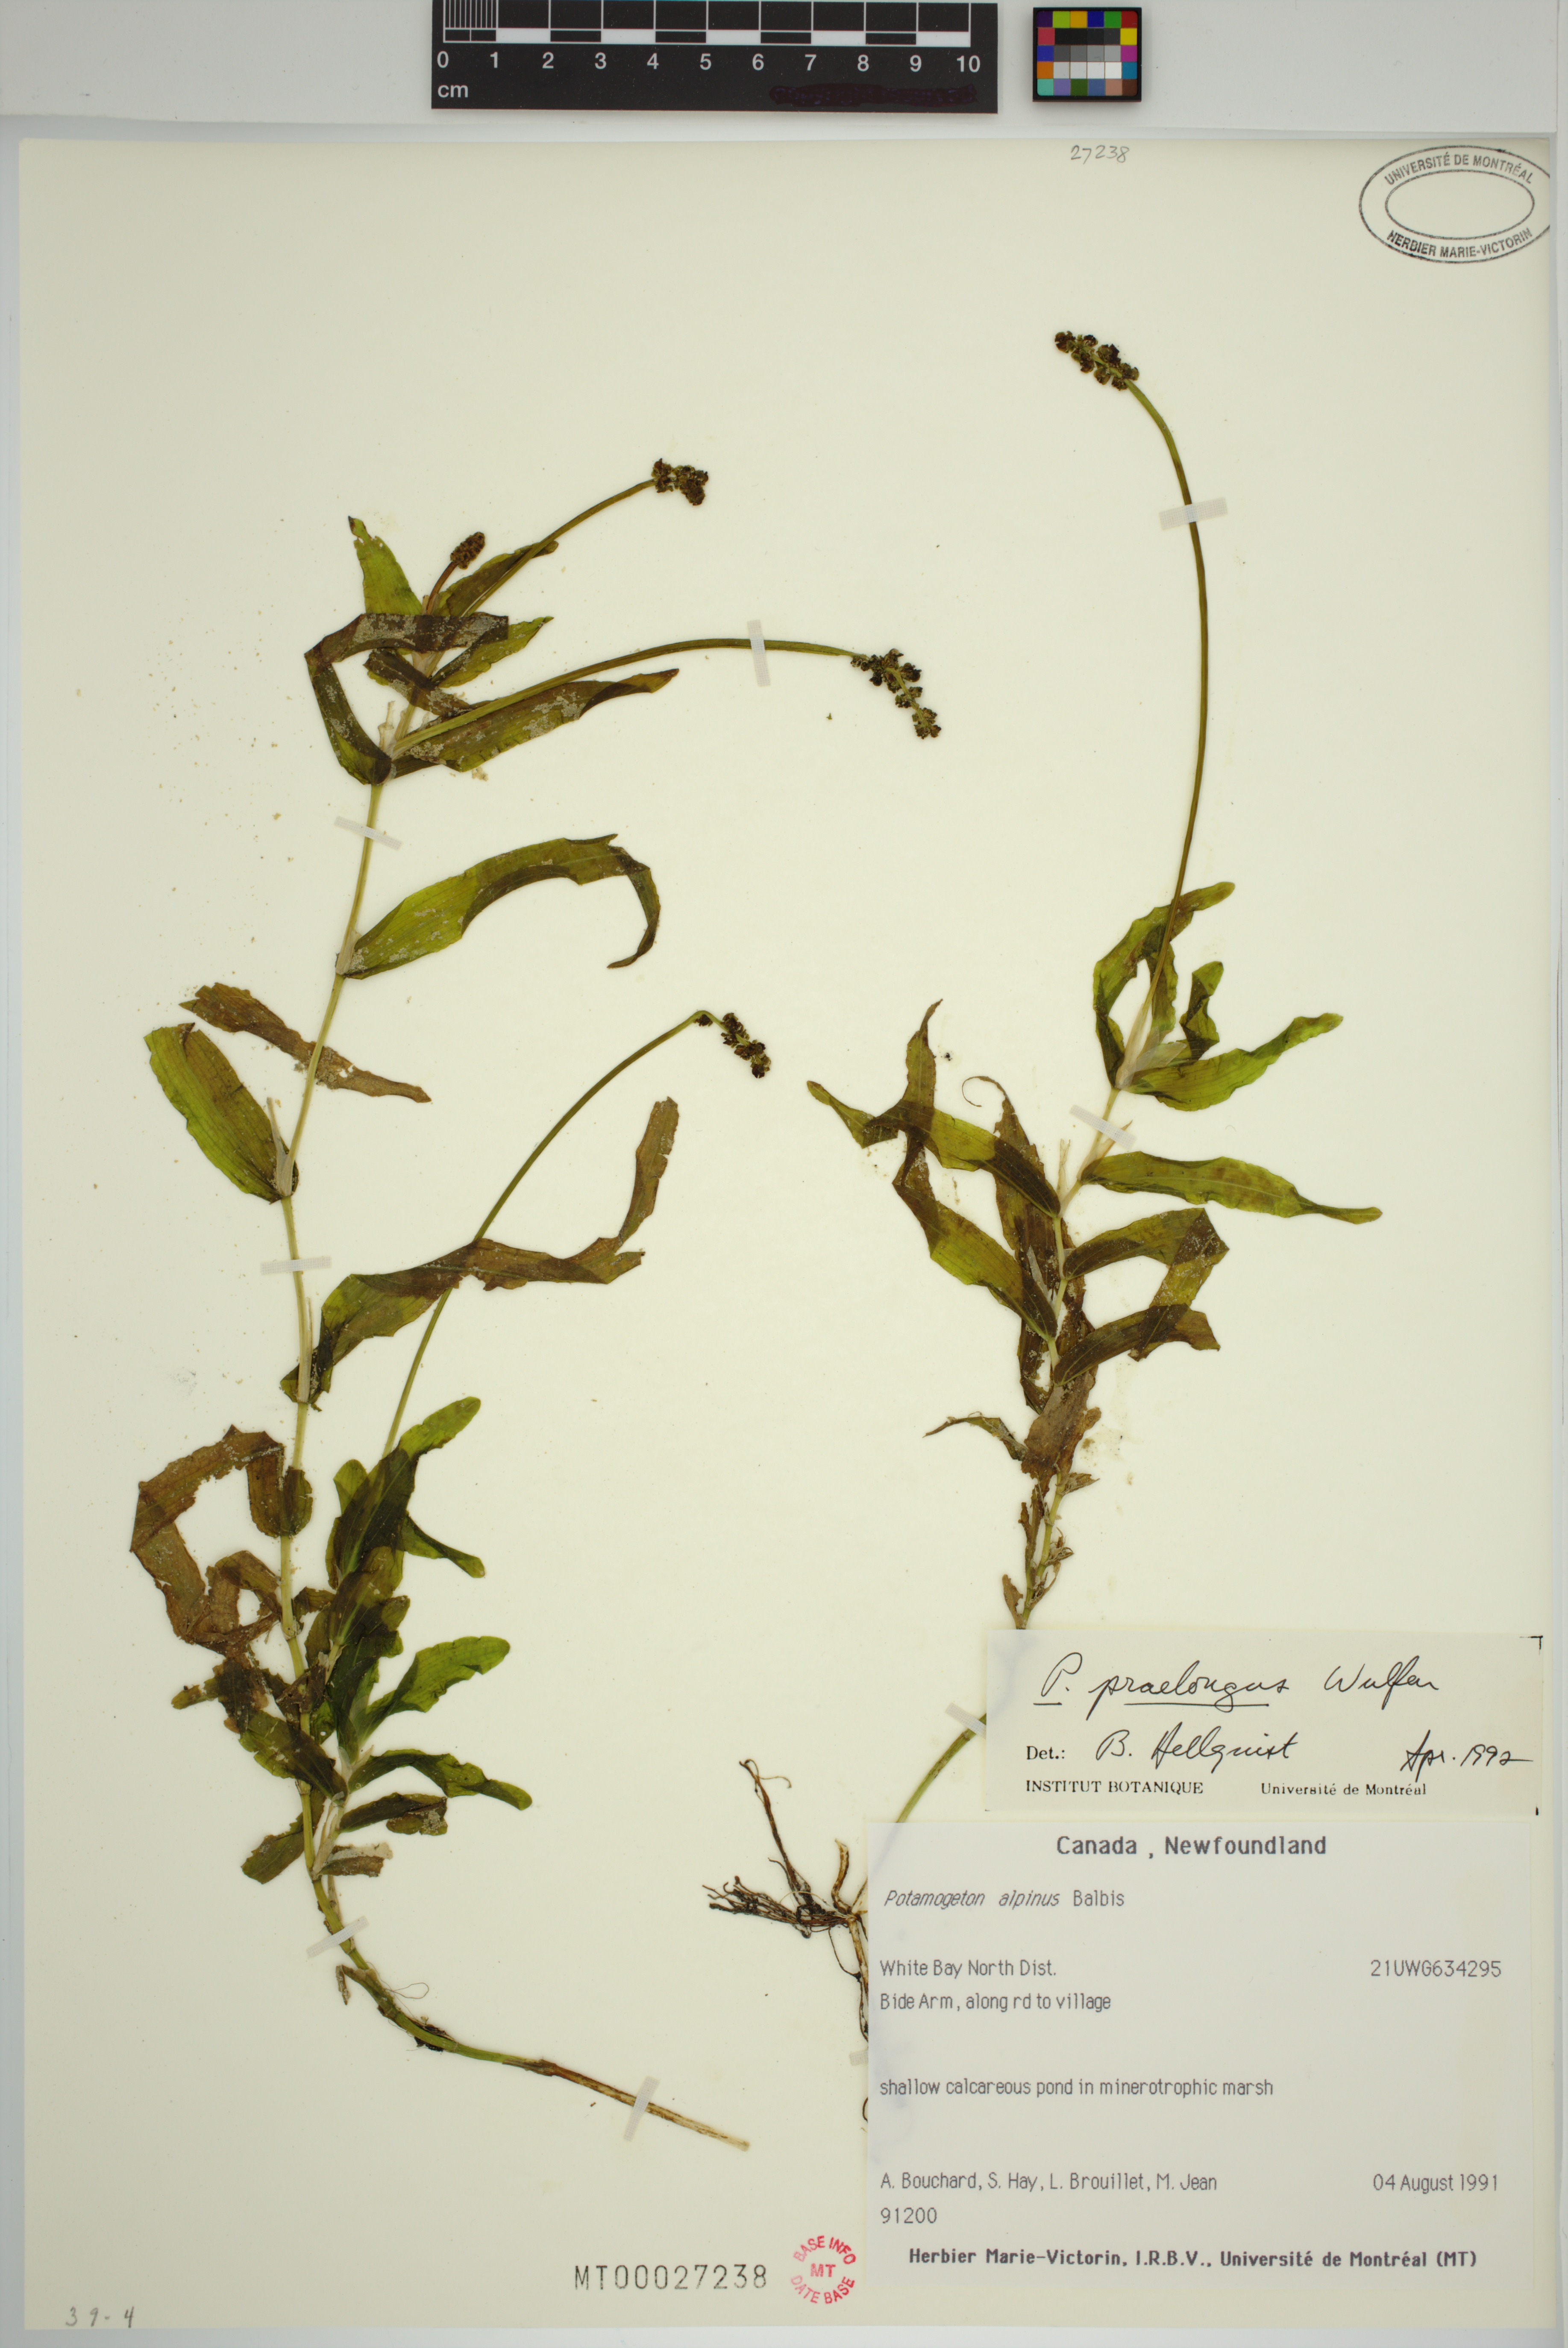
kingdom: Plantae
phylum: Tracheophyta
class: Liliopsida
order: Alismatales
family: Potamogetonaceae
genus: Potamogeton
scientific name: Potamogeton praelongus
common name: Long-stalked pondweed
